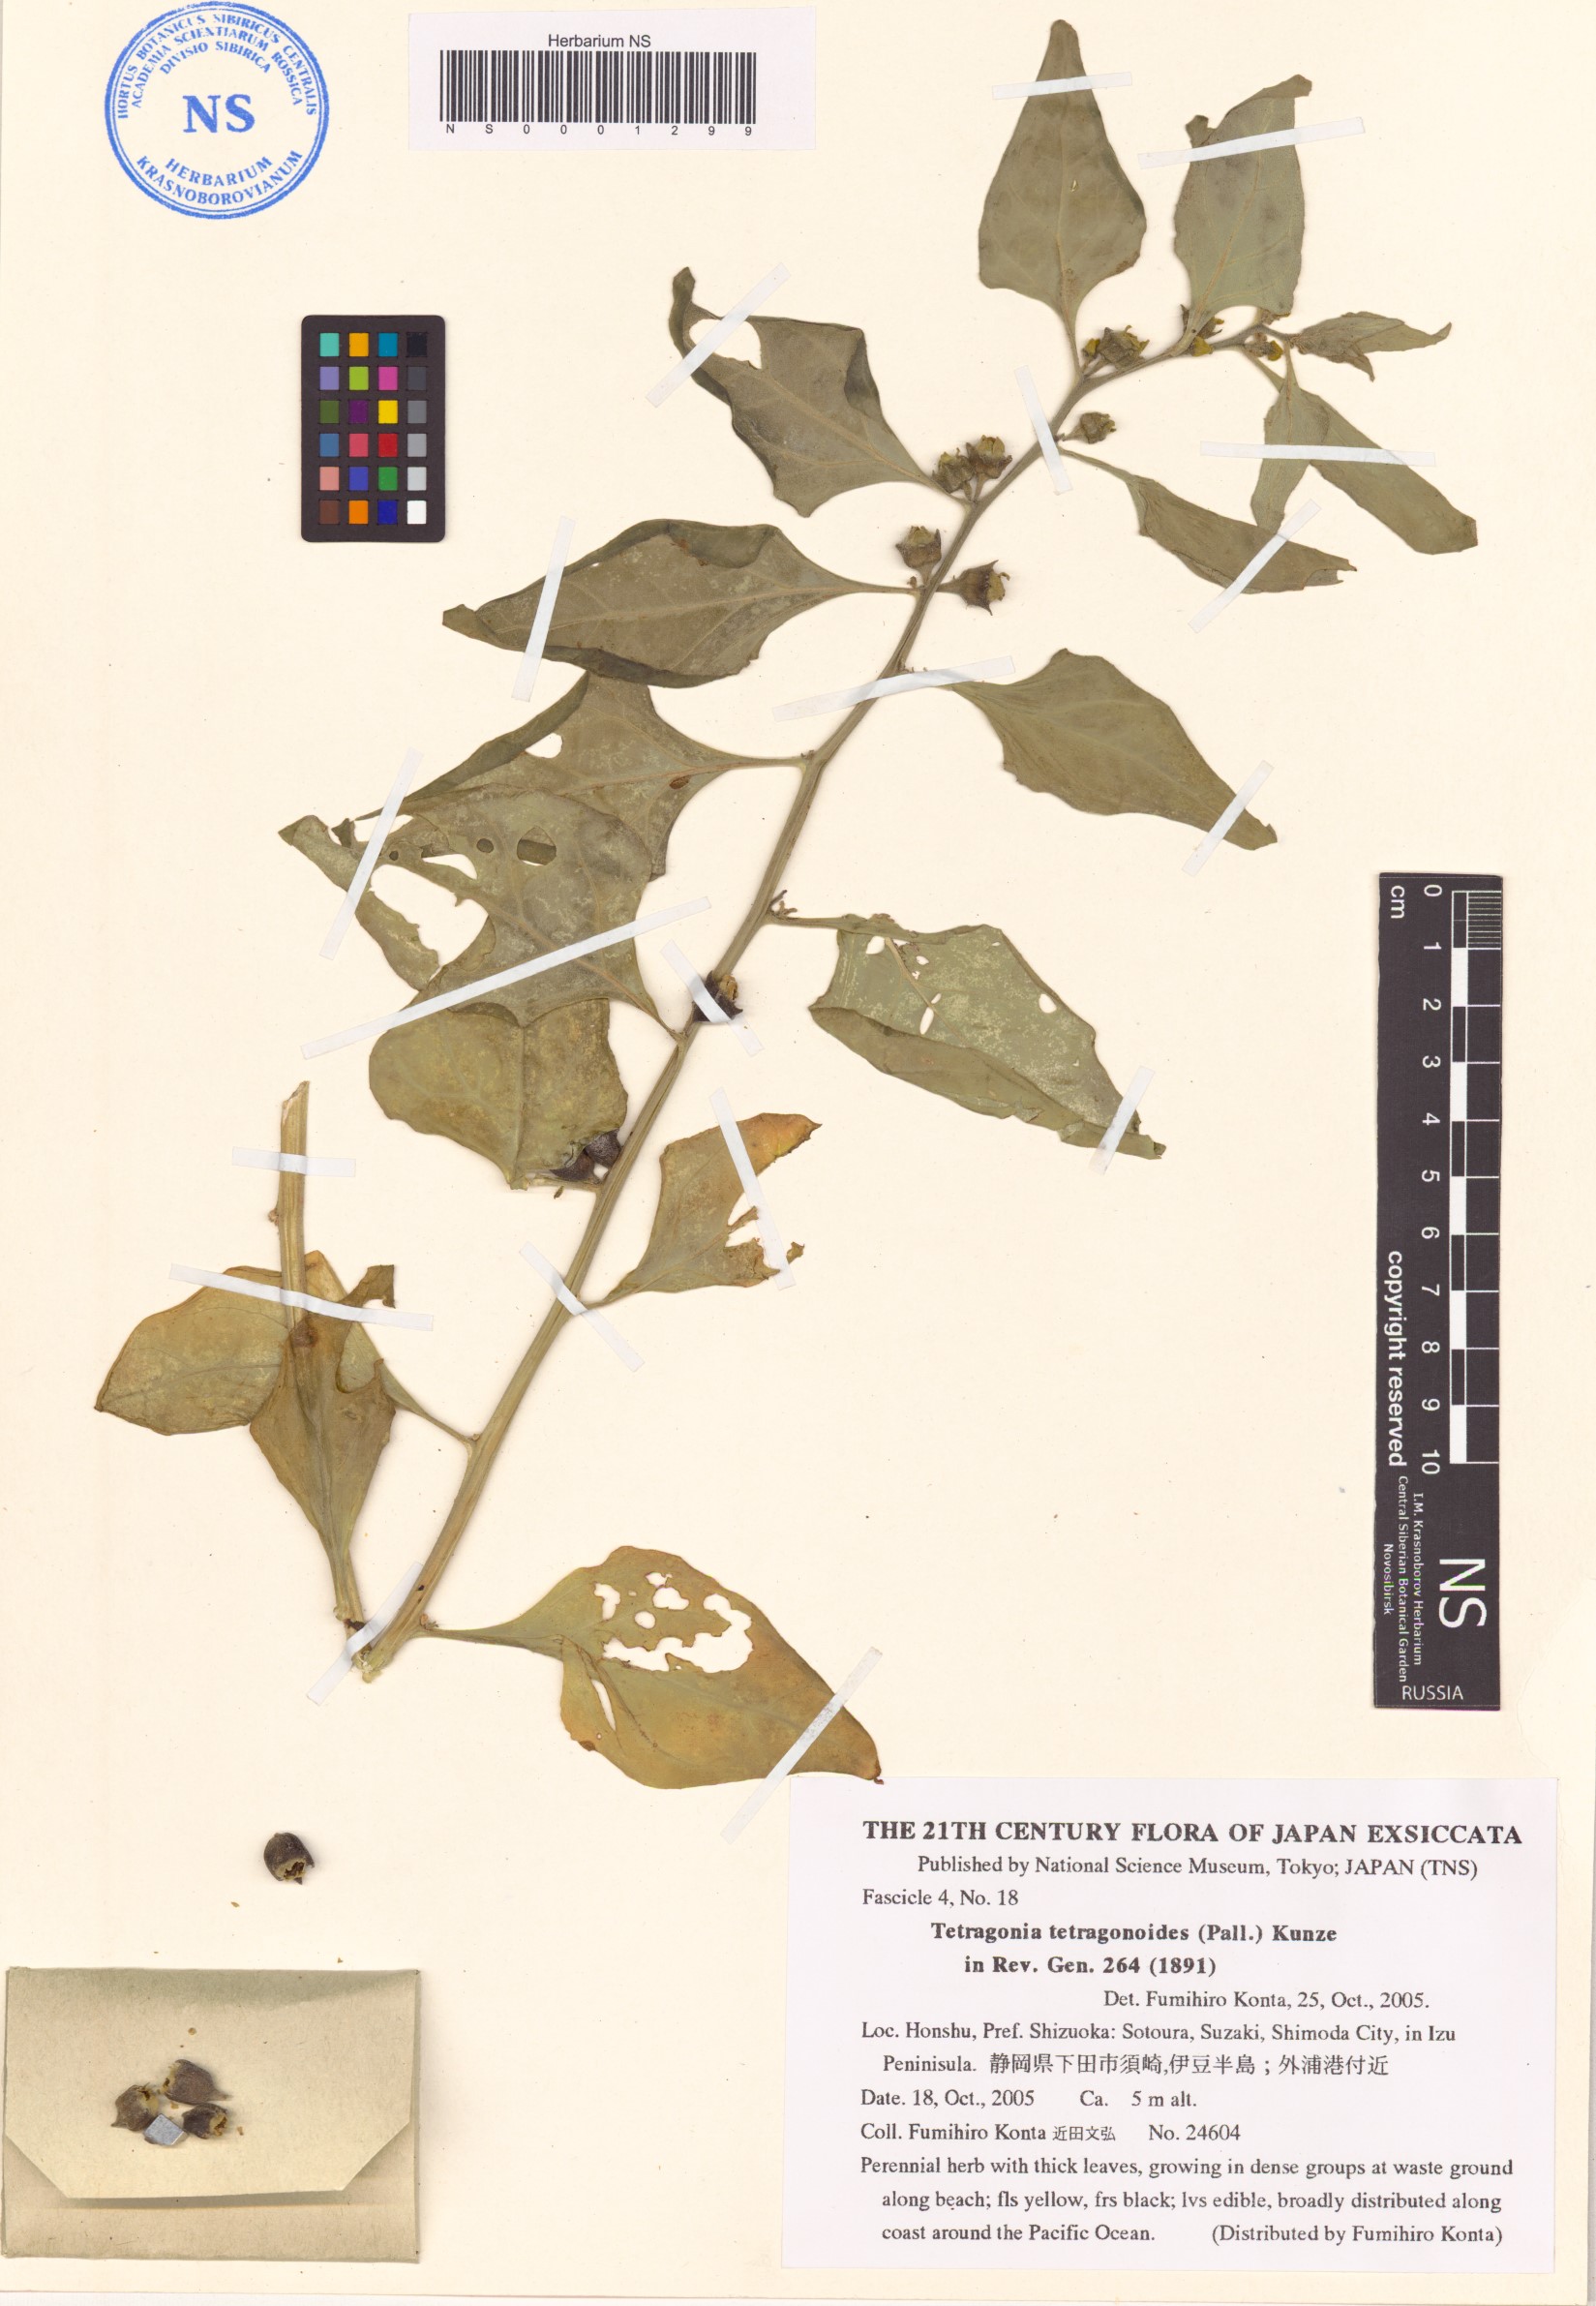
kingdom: Plantae
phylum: Tracheophyta
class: Magnoliopsida
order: Caryophyllales
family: Aizoaceae
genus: Tetragonia
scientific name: Tetragonia tetragonoides
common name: New zealand-spinach
